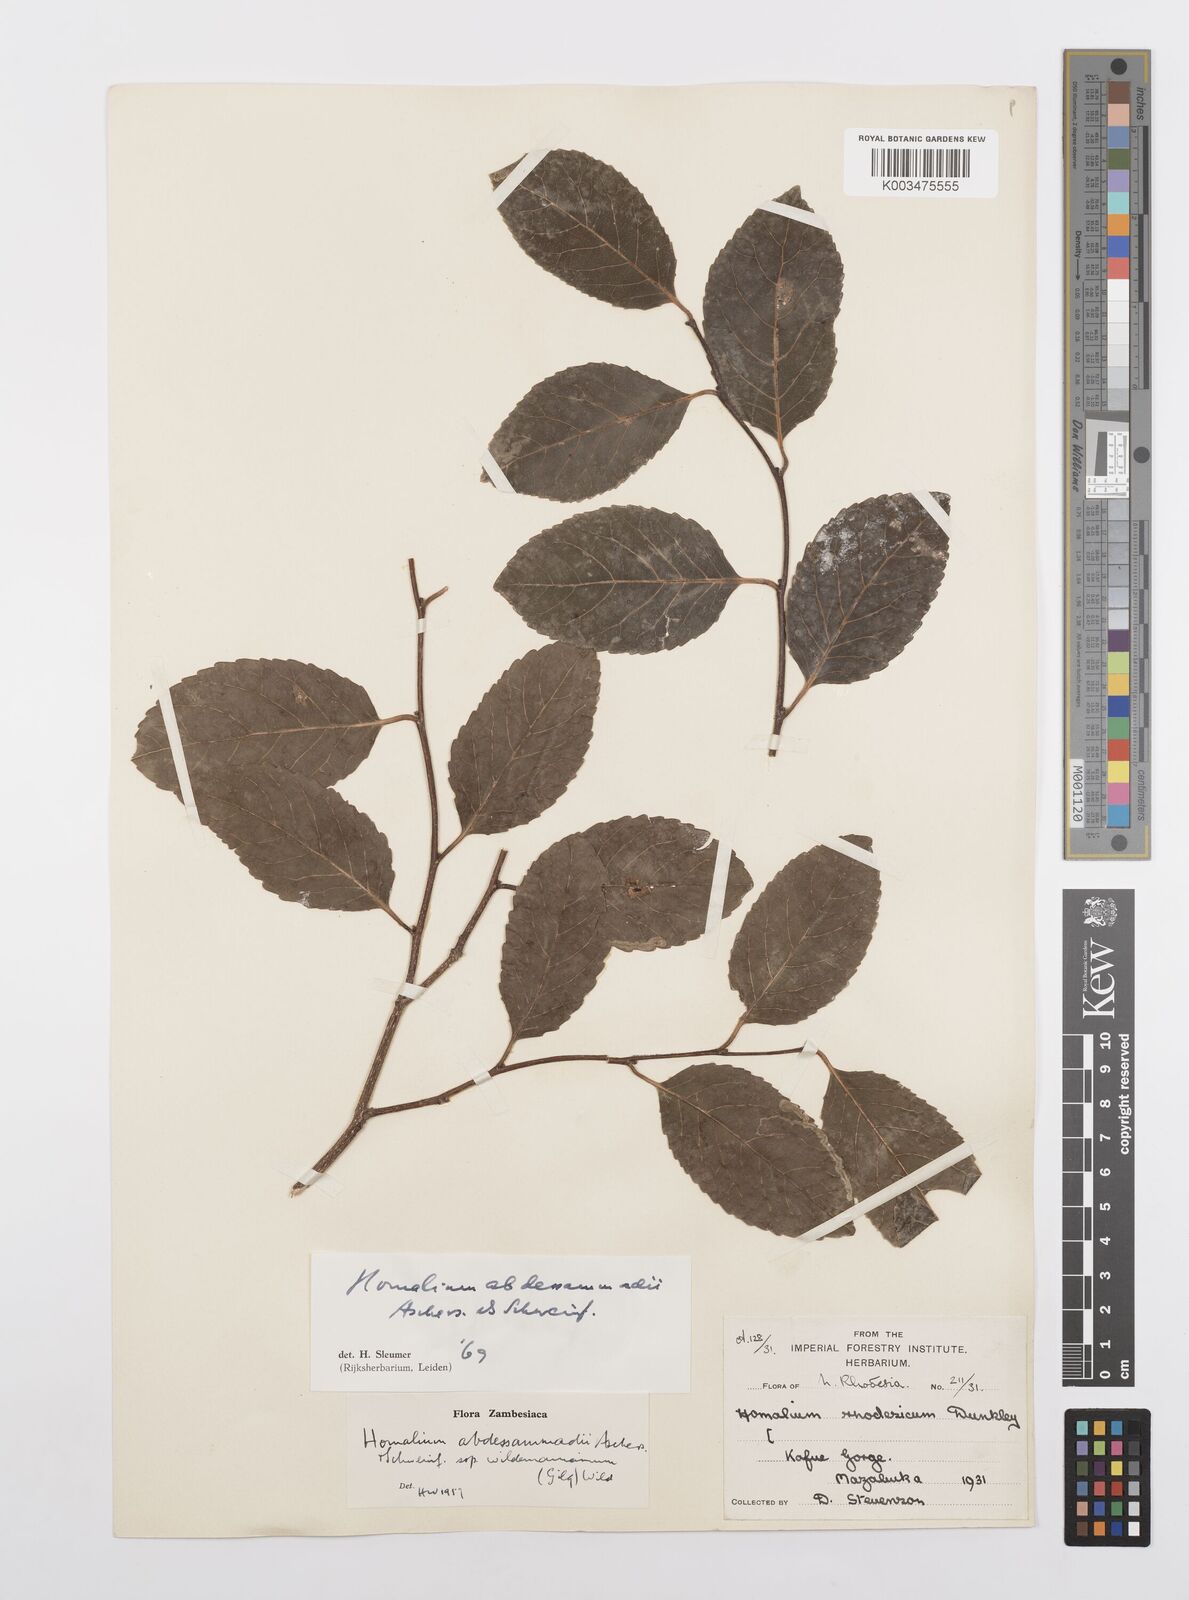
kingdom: Plantae
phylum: Tracheophyta
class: Magnoliopsida
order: Malpighiales
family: Salicaceae
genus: Homalium
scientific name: Homalium abdessammadii
